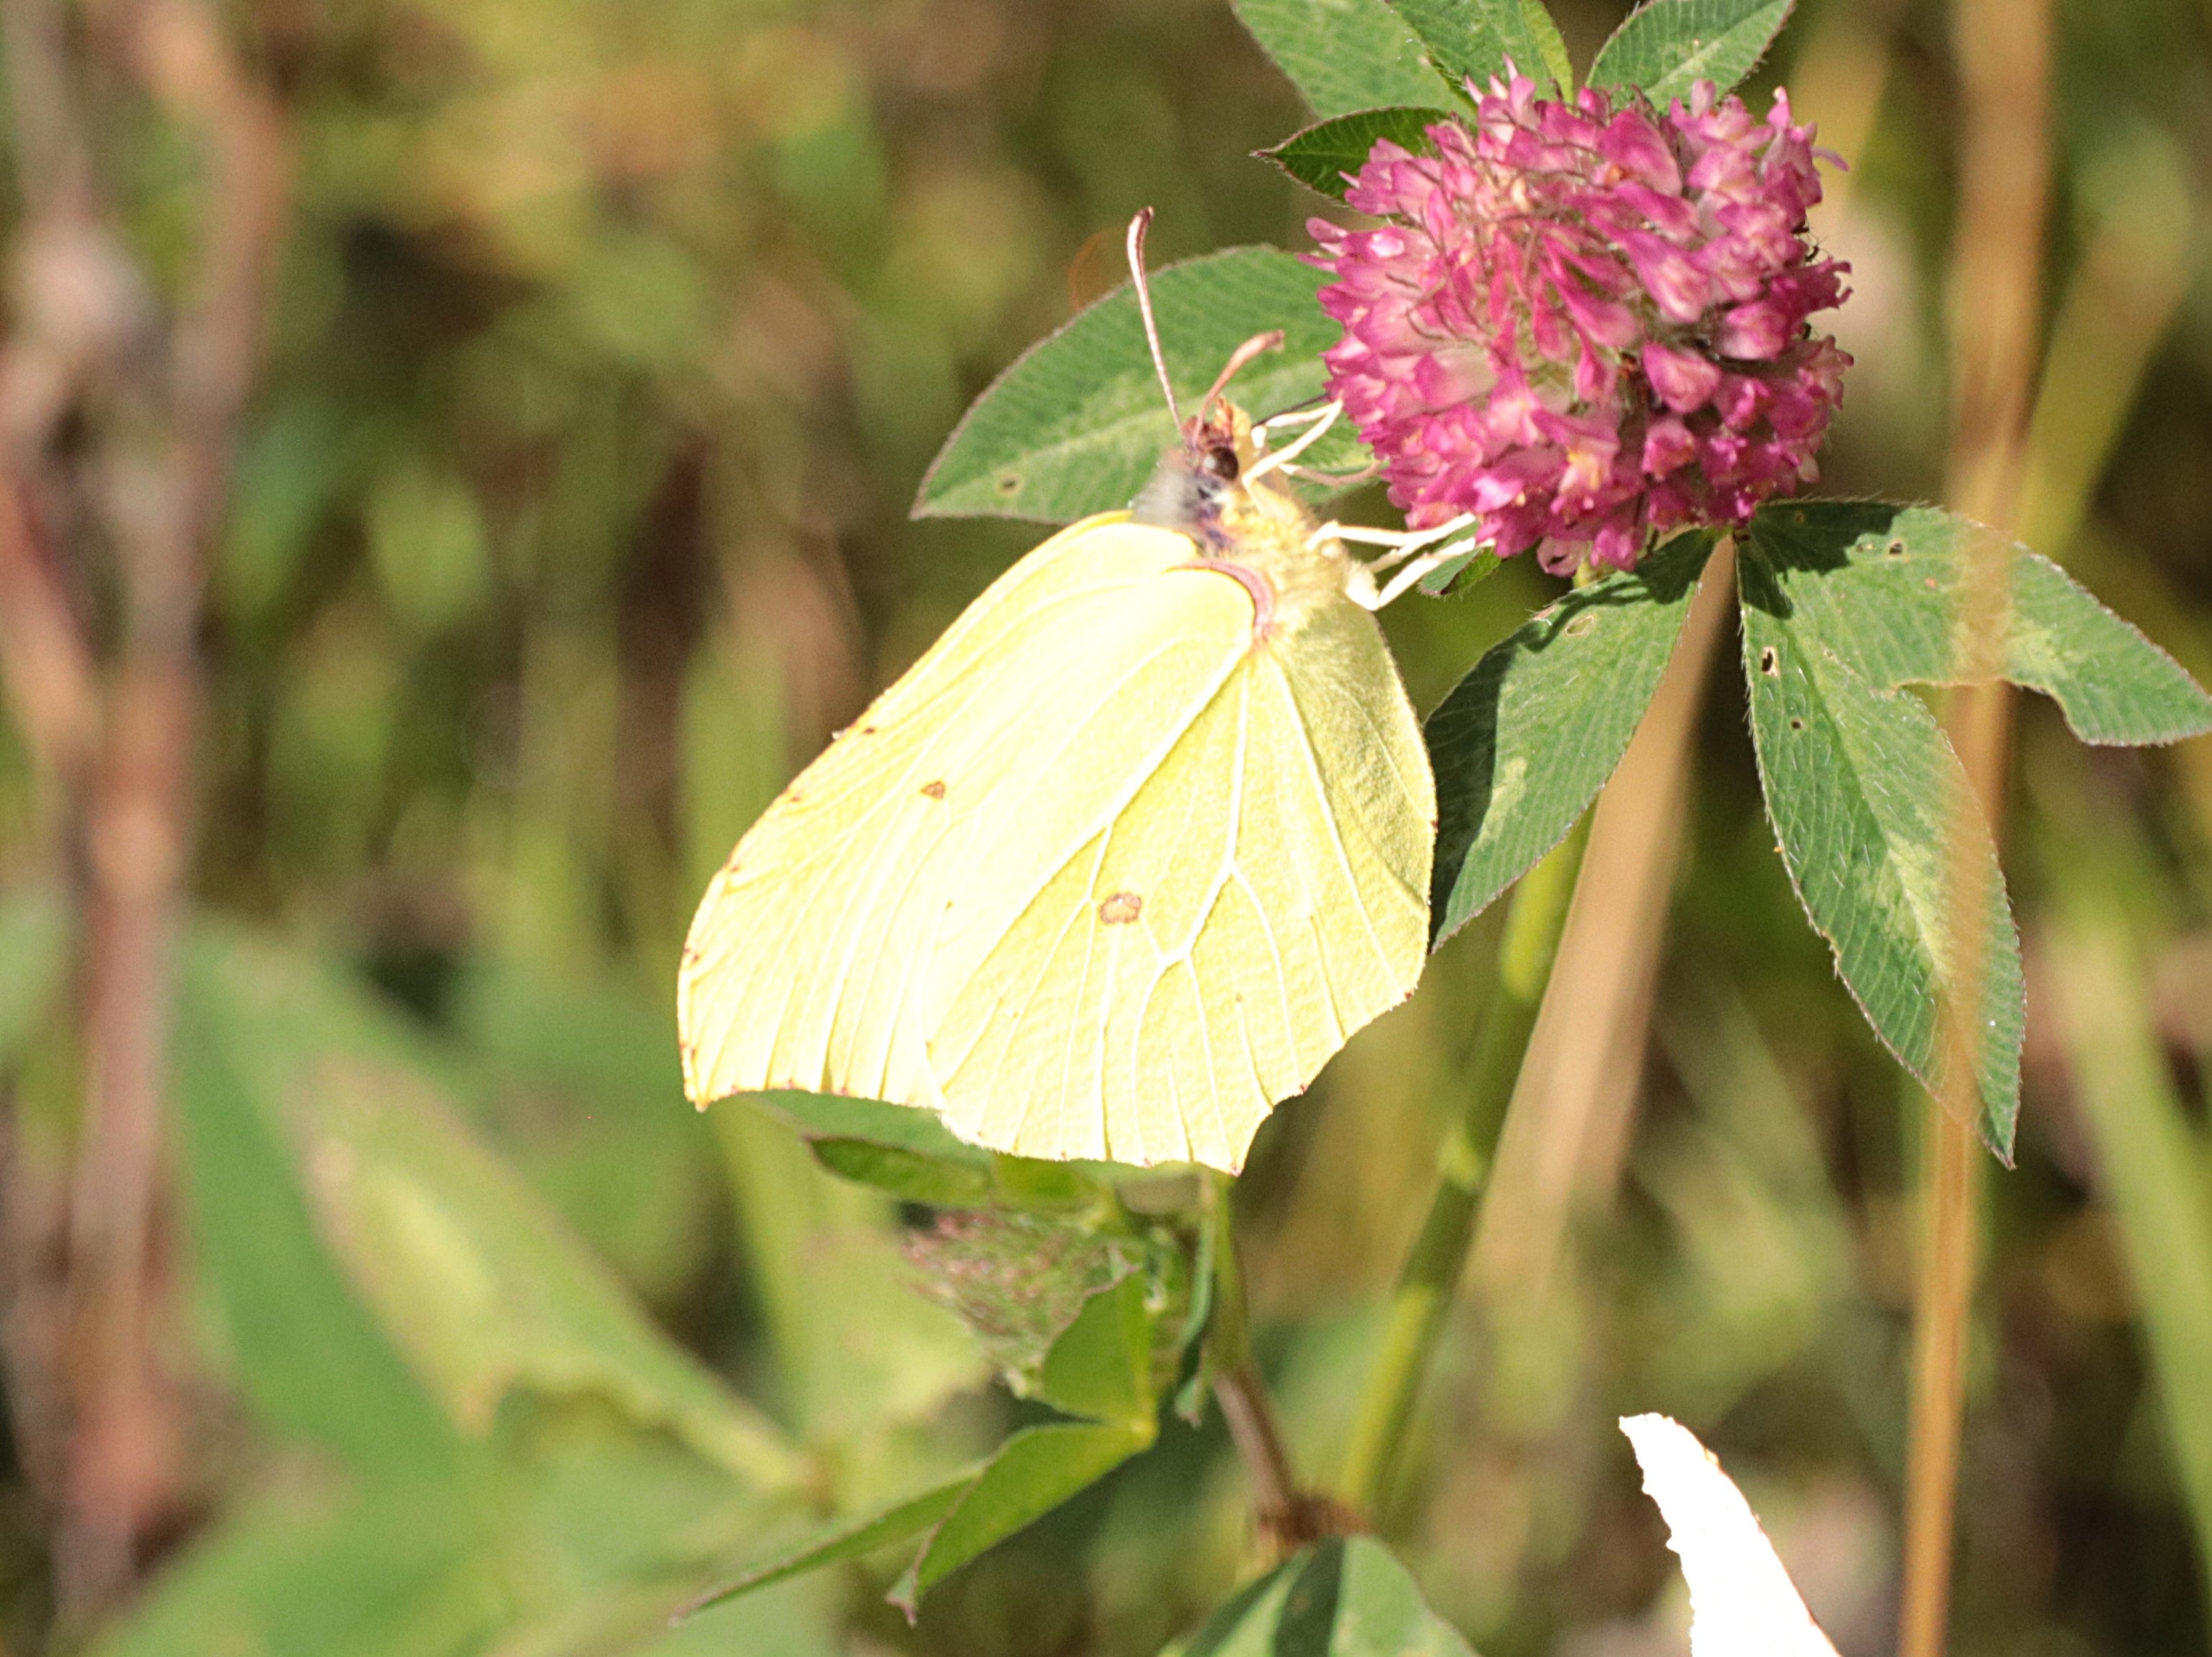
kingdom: Animalia
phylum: Arthropoda
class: Insecta
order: Lepidoptera
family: Pieridae
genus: Gonepteryx
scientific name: Gonepteryx rhamni
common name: Citronsommerfugl
